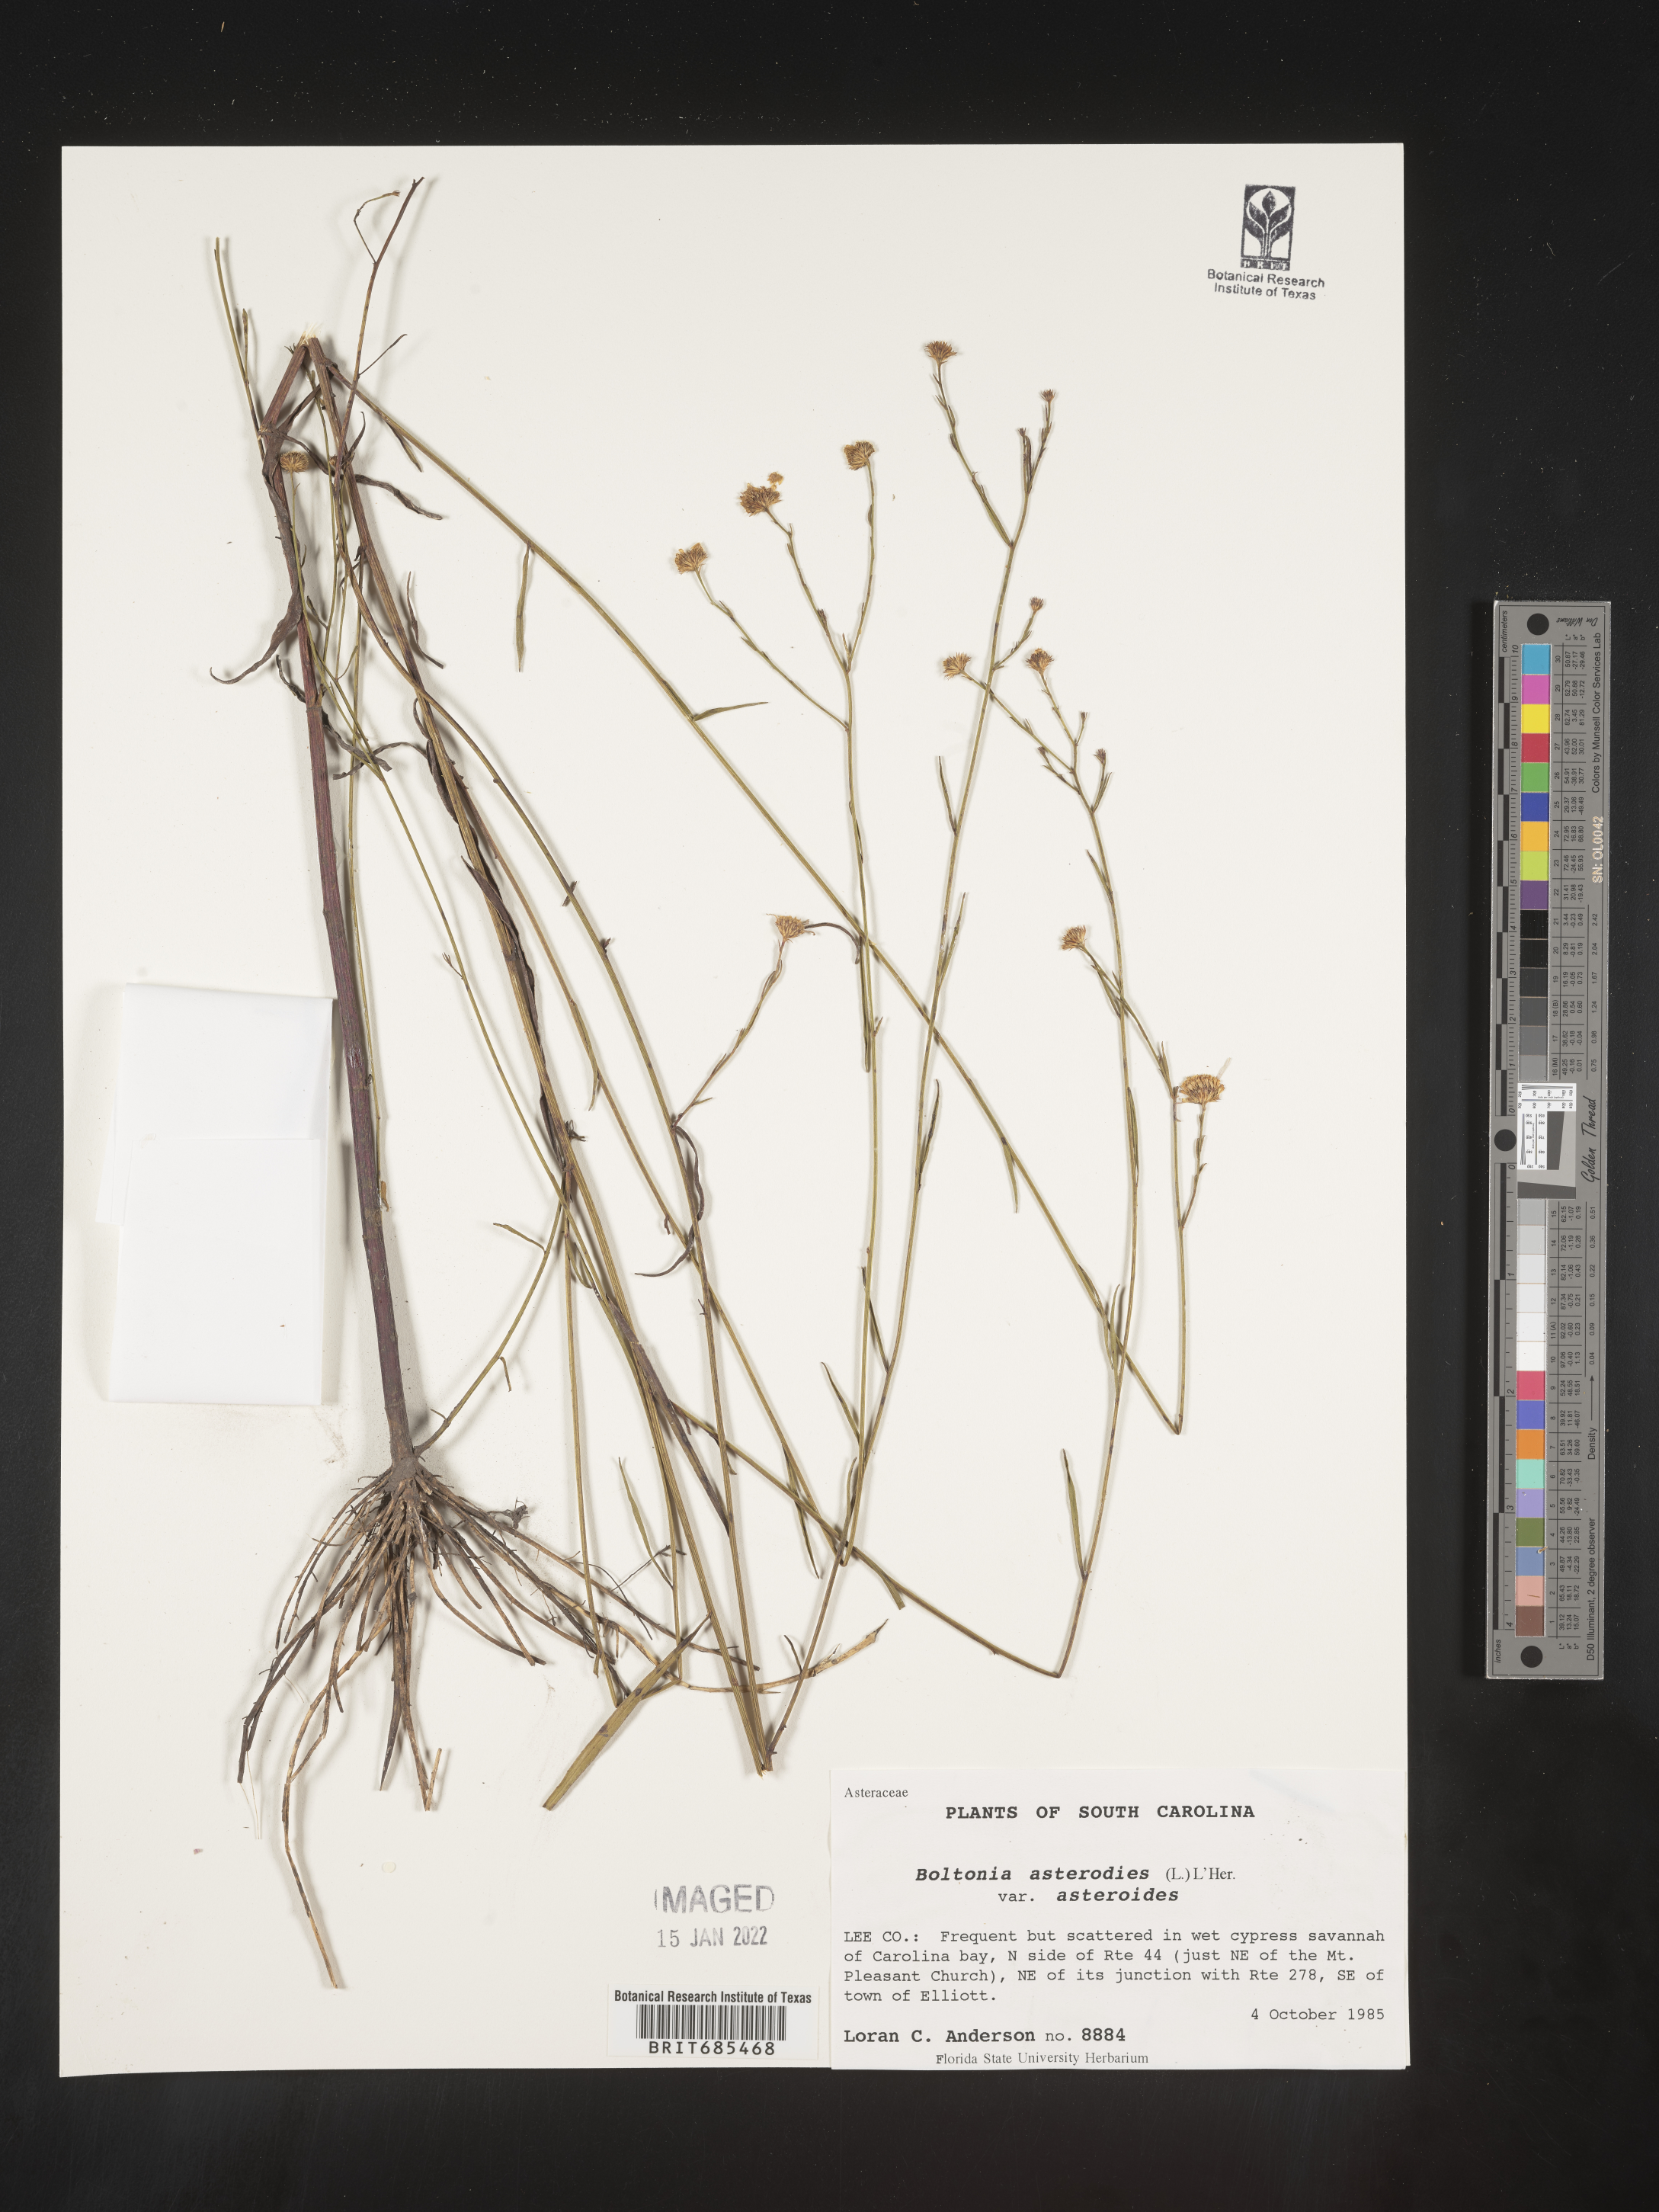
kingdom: Plantae
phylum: Tracheophyta
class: Magnoliopsida
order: Asterales
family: Asteraceae
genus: Boltonia
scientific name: Boltonia asteroides
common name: False chamomile
